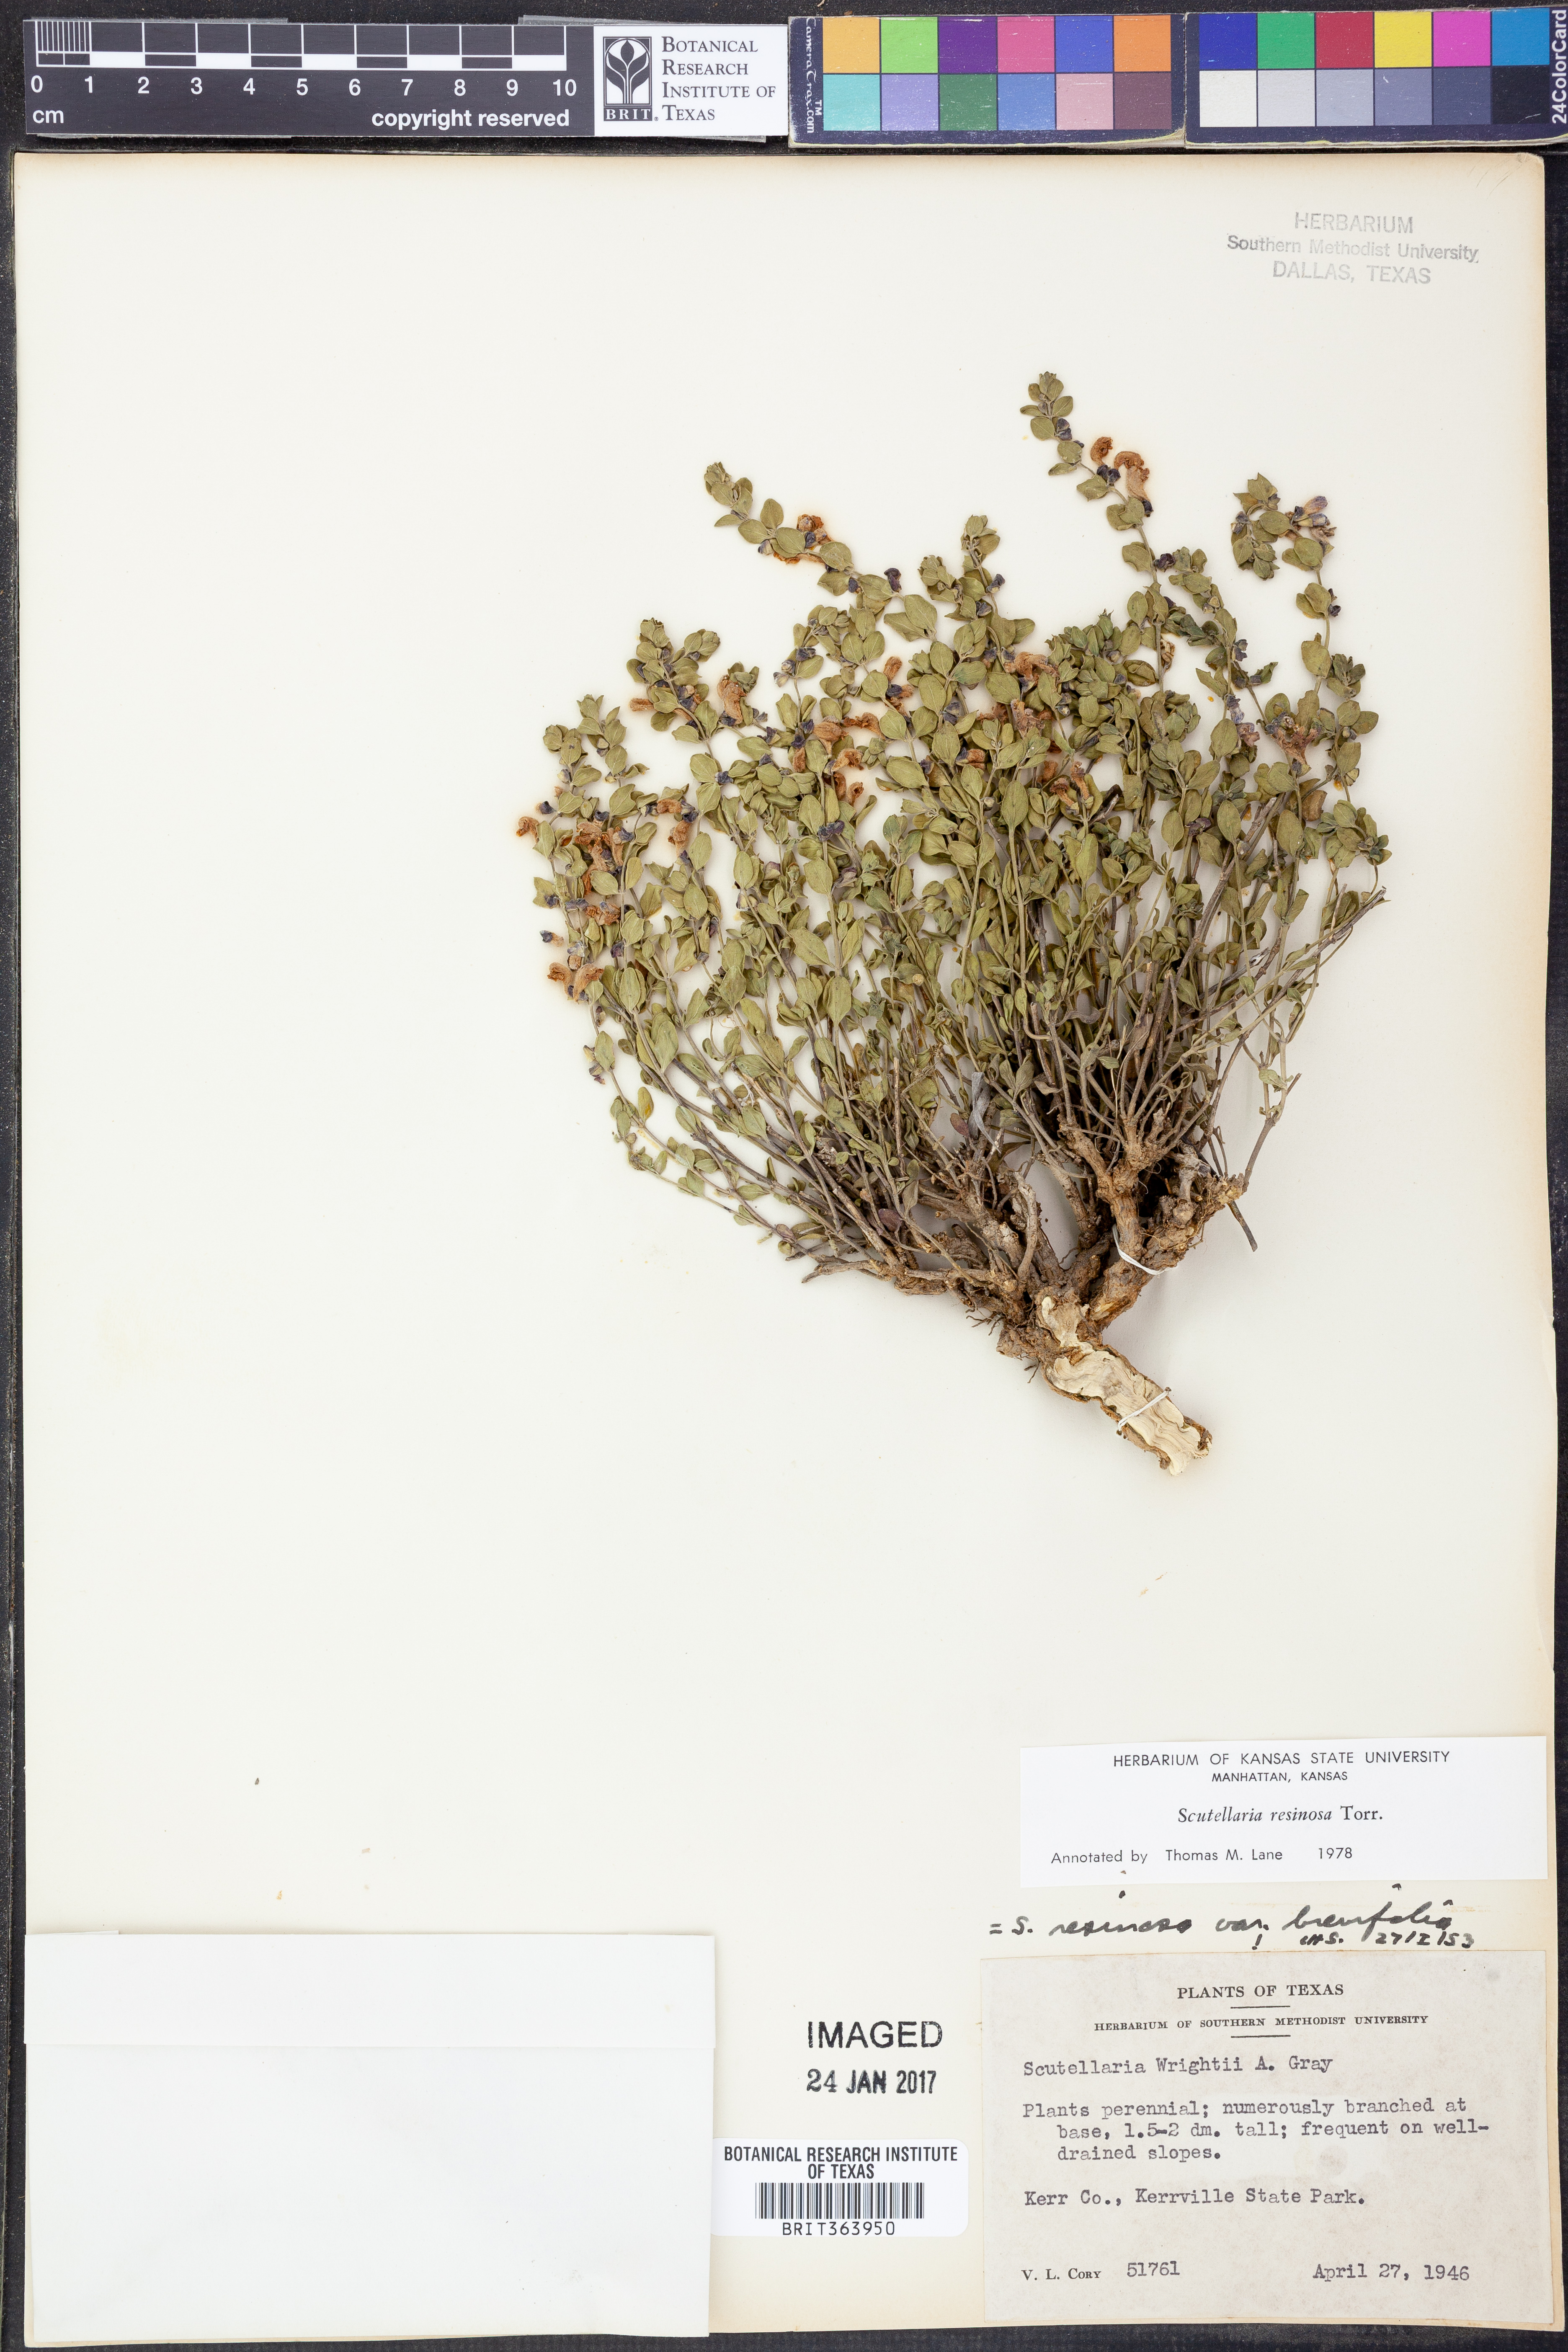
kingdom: Plantae
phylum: Tracheophyta
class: Magnoliopsida
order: Lamiales
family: Lamiaceae
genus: Scutellaria
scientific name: Scutellaria resinosa
